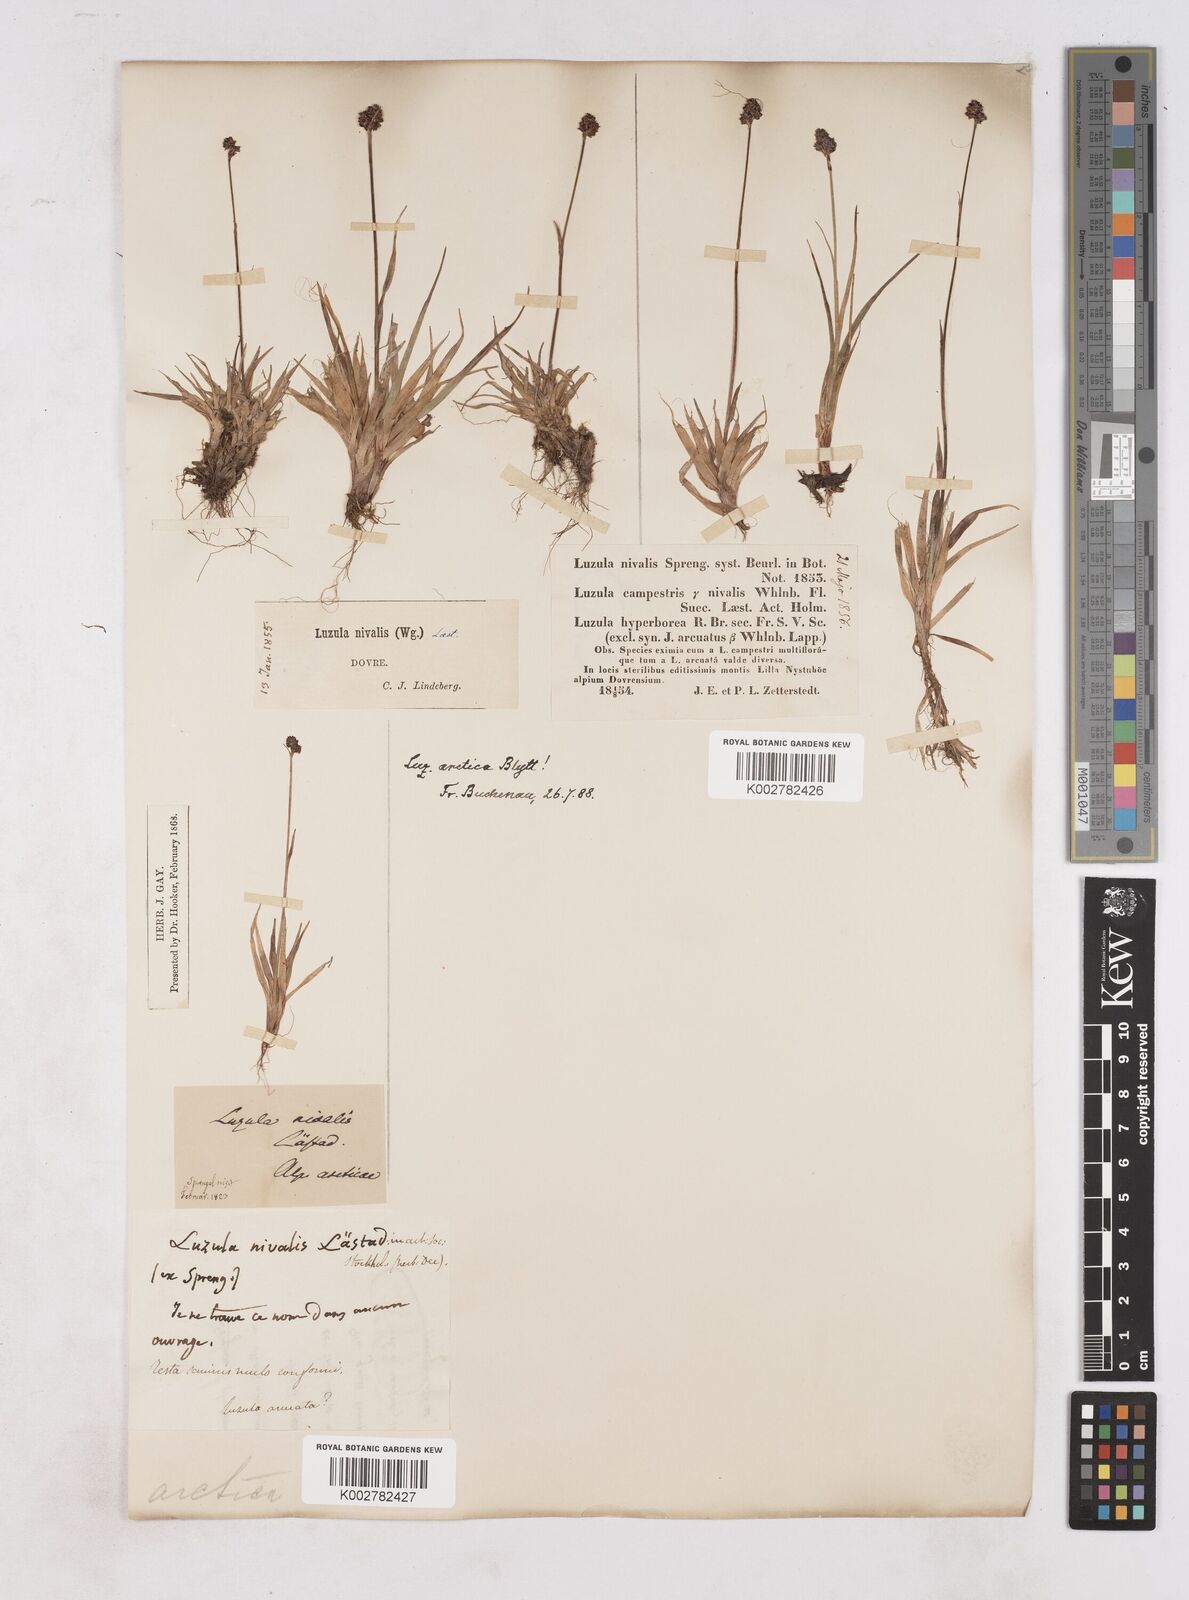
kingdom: Plantae
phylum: Tracheophyta
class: Liliopsida
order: Poales
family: Juncaceae
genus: Luzula
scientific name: Luzula nivalis
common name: Arctic woodrush
